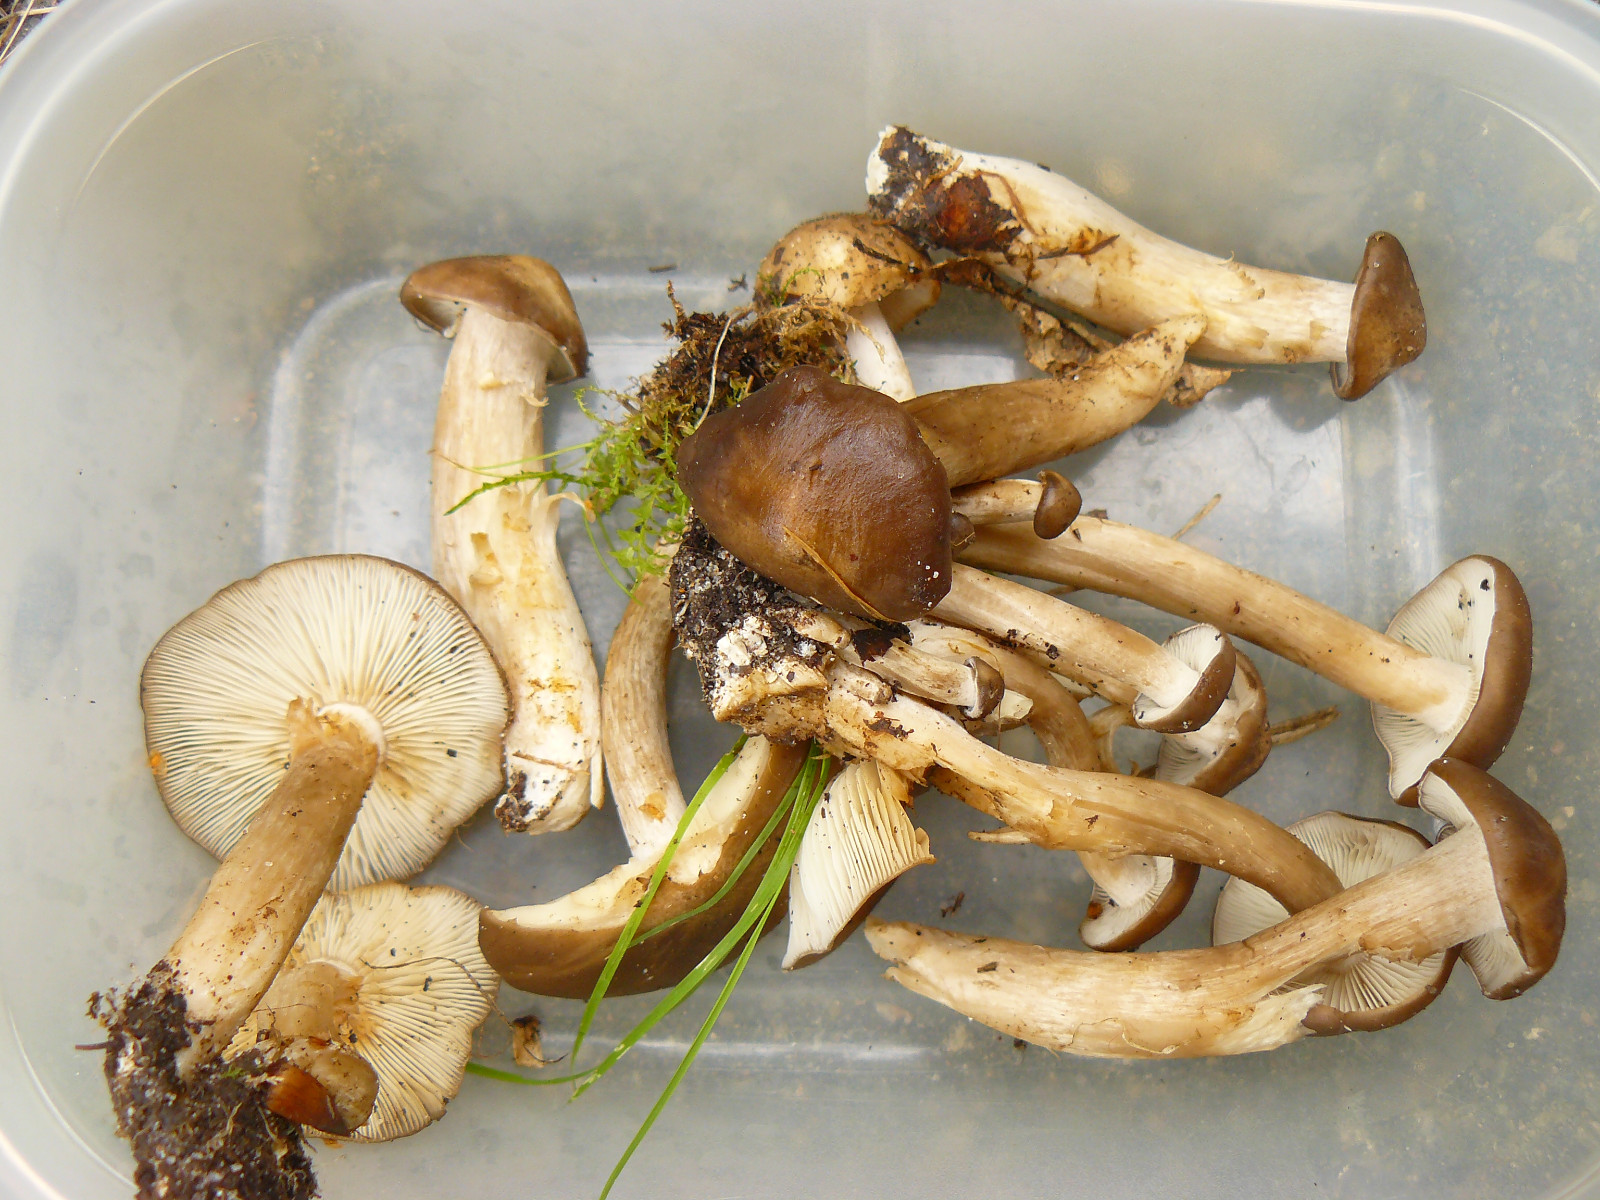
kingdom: Fungi
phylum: Basidiomycota
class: Agaricomycetes
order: Agaricales
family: Lyophyllaceae
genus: Lyophyllum
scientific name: Lyophyllum decastes
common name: røggrå gråblad
